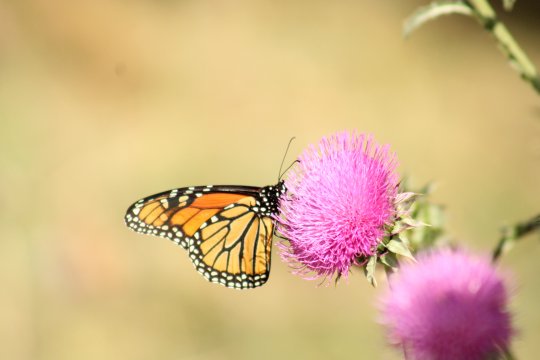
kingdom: Animalia
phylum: Arthropoda
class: Insecta
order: Lepidoptera
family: Nymphalidae
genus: Danaus
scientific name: Danaus plexippus
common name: Monarch
